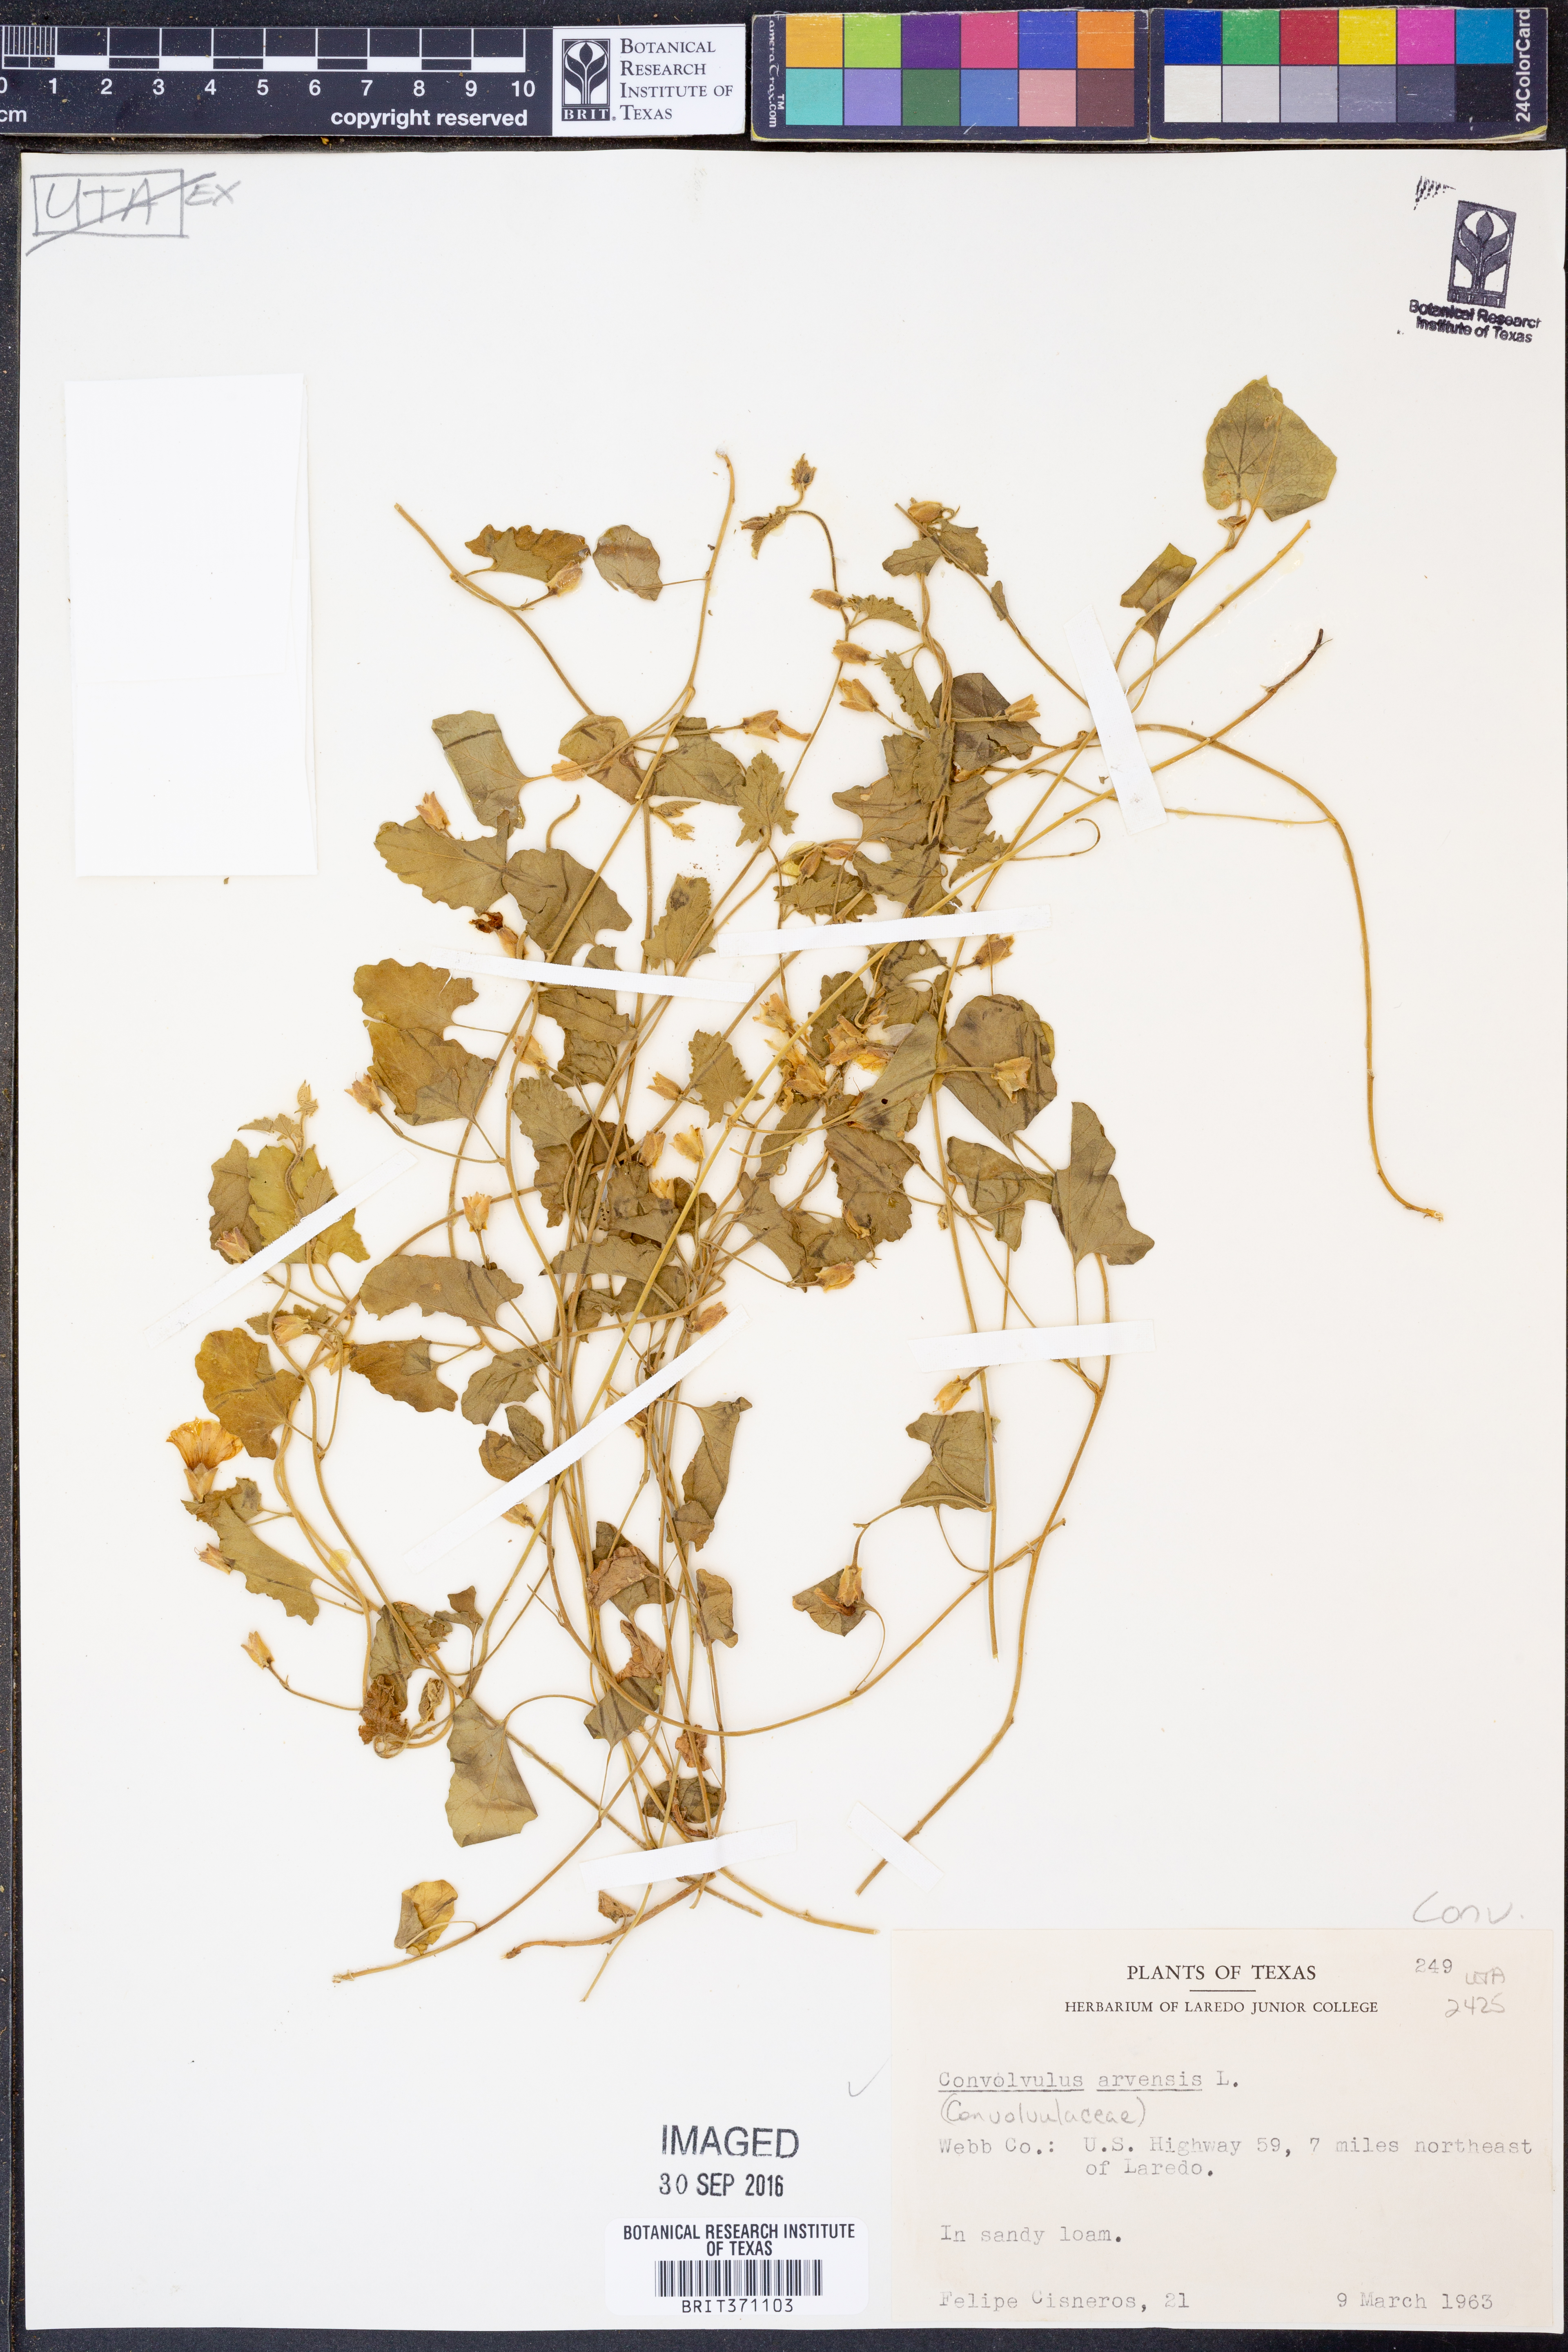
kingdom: Plantae
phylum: Tracheophyta
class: Magnoliopsida
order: Solanales
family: Convolvulaceae
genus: Convolvulus
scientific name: Convolvulus arvensis
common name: Field bindweed
